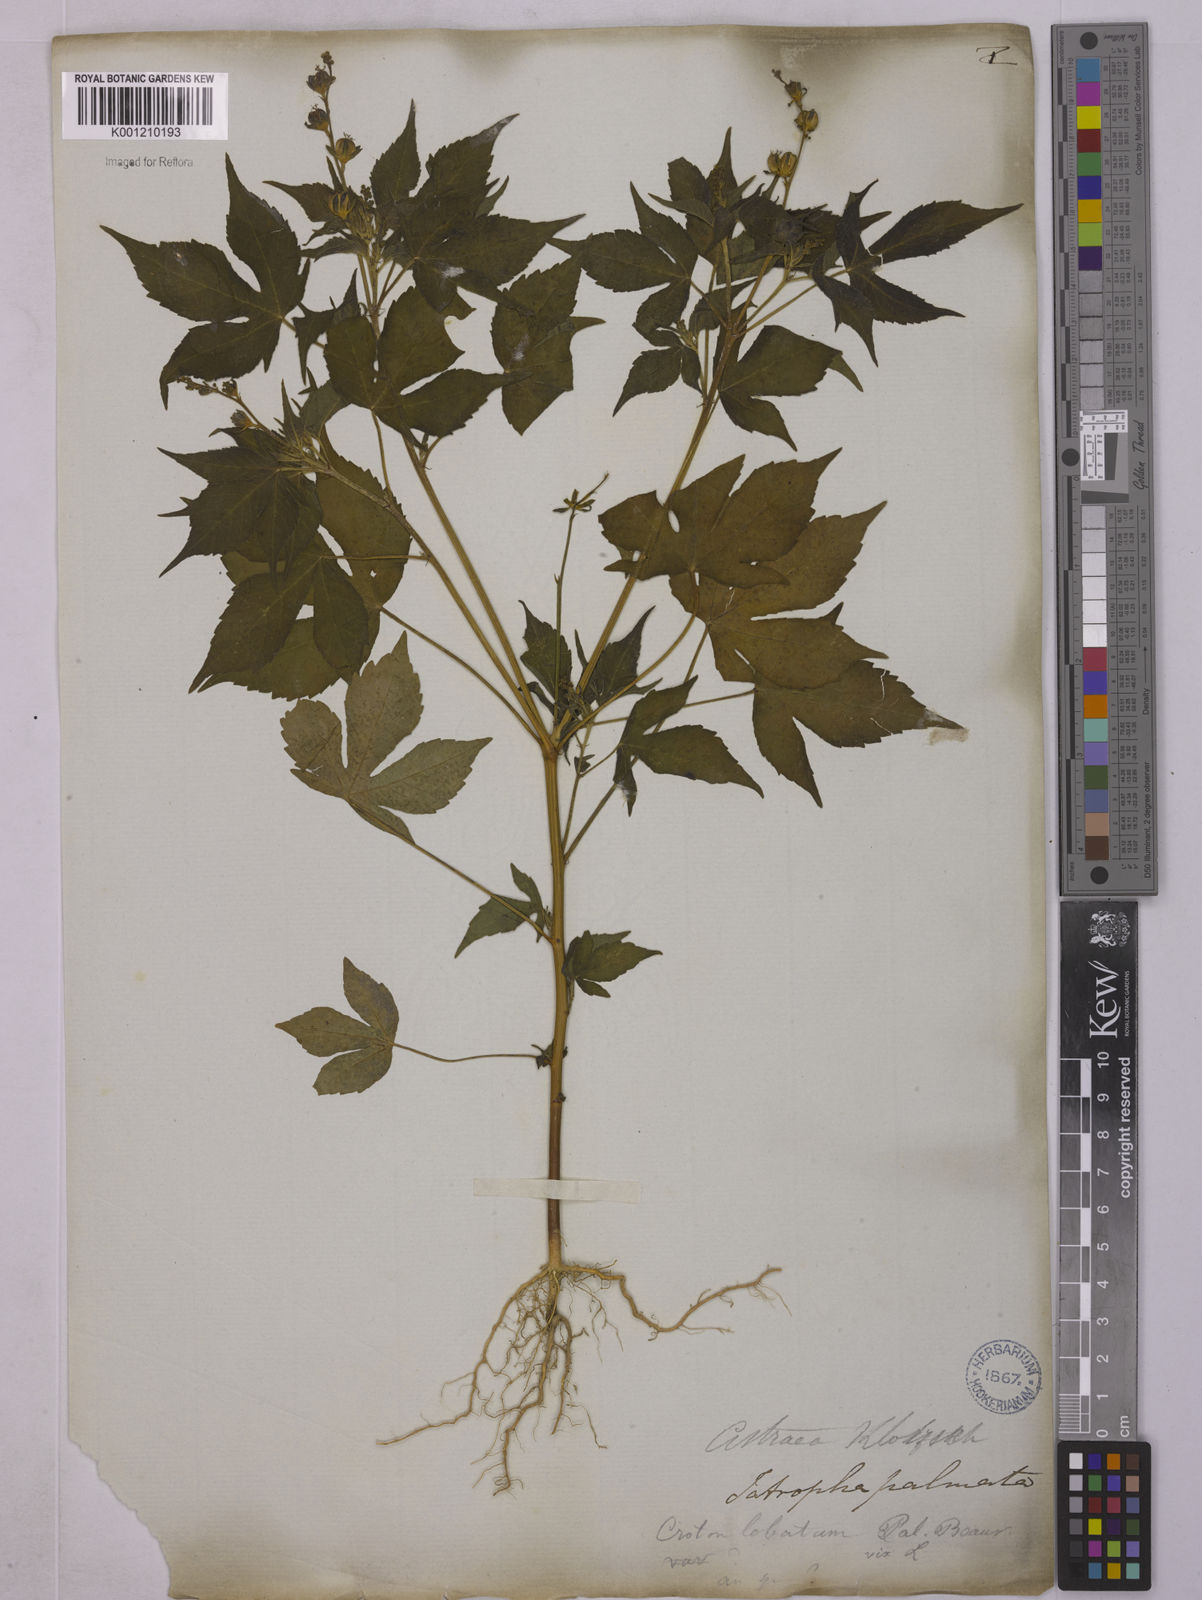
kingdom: Plantae
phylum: Tracheophyta
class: Magnoliopsida
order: Malpighiales
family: Euphorbiaceae
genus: Astraea
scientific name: Astraea lobata
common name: Lobed croton
